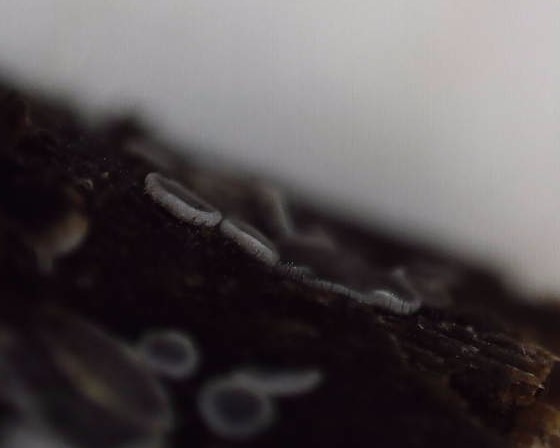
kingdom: Fungi
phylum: Ascomycota
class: Leotiomycetes
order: Helotiales
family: Mollisiaceae
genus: Mollisia
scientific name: Mollisia cinerea
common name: almindelig gråskive
